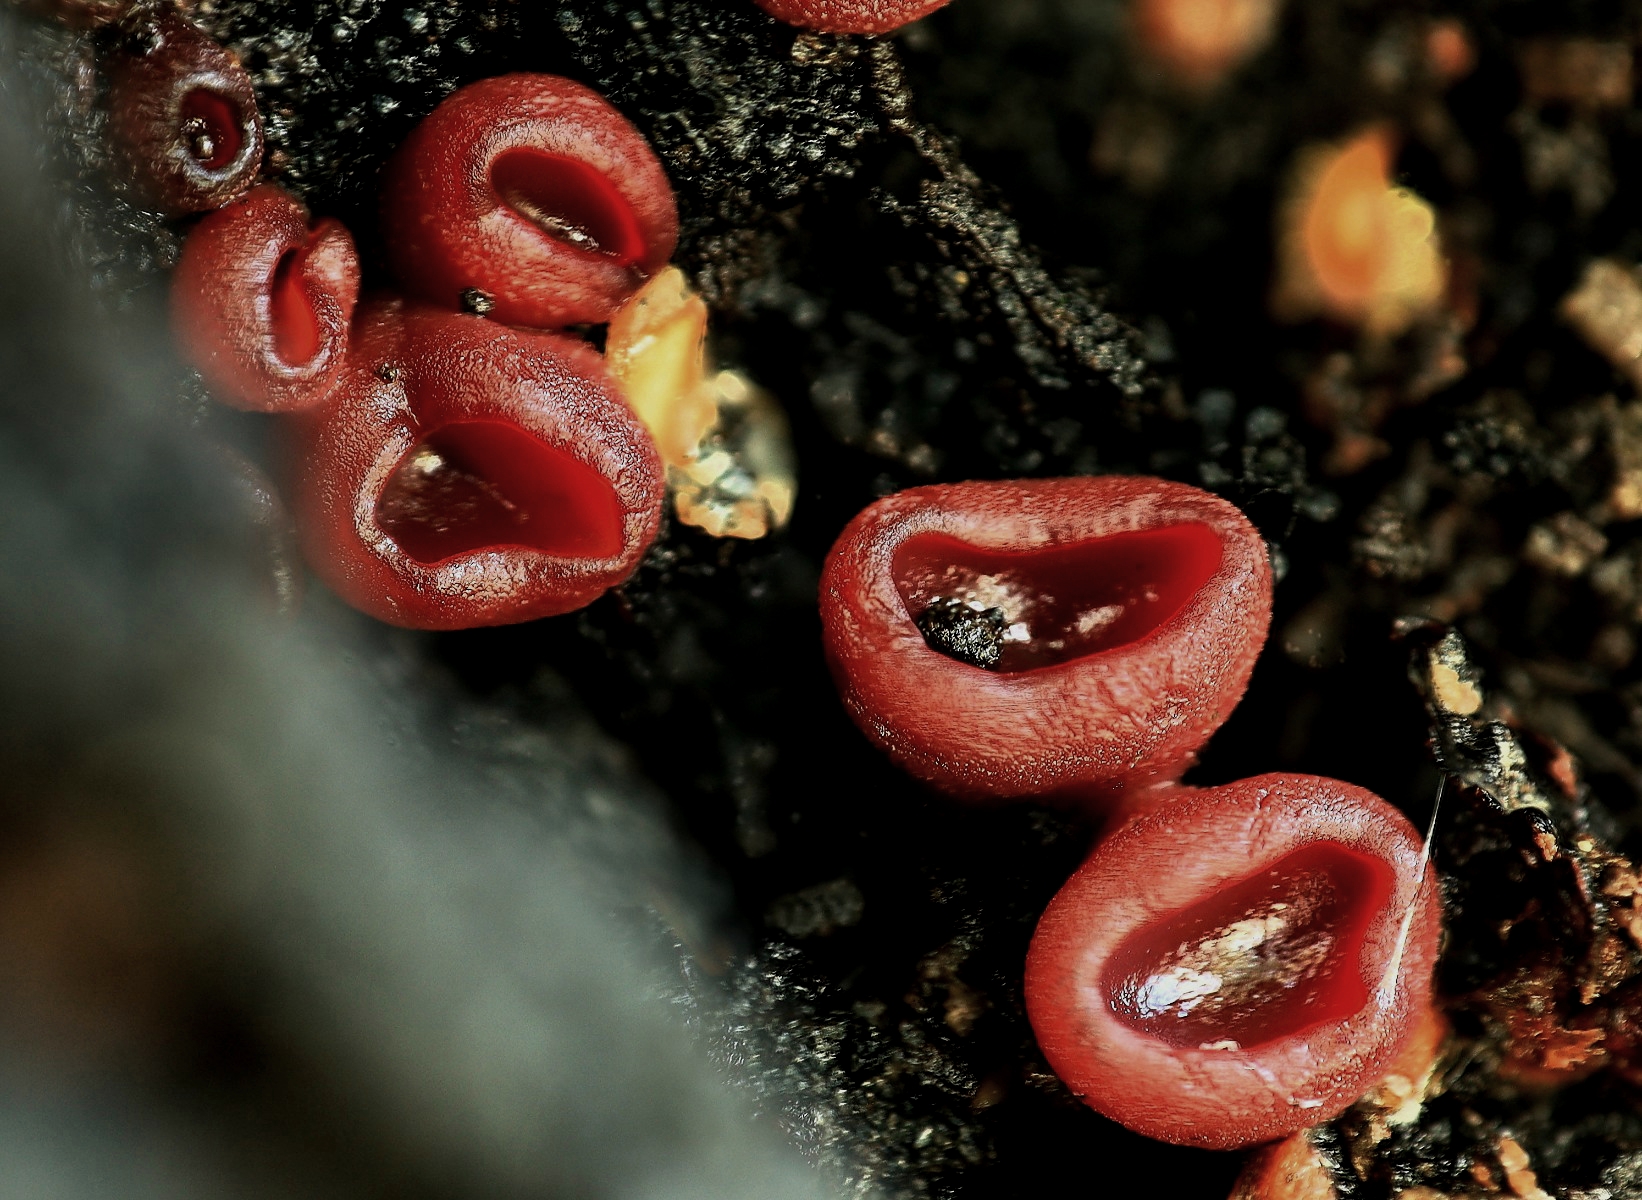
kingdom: Fungi
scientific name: Fungi
